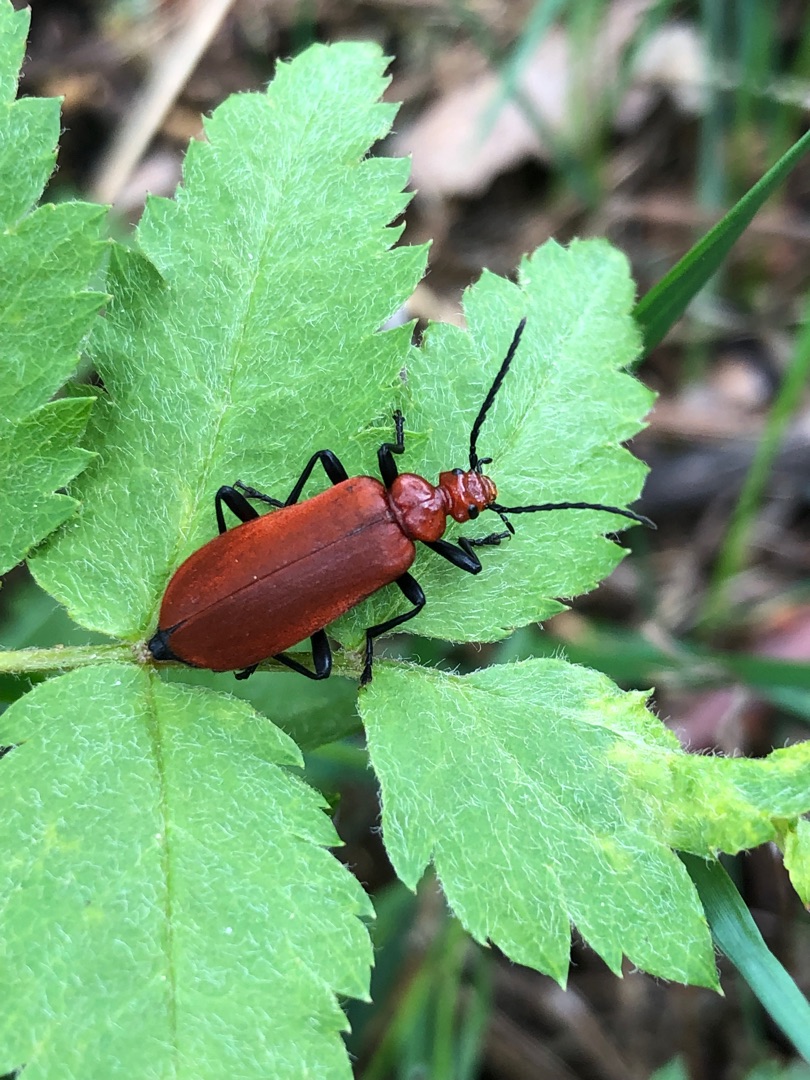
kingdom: Animalia
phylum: Arthropoda
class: Insecta
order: Coleoptera
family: Pyrochroidae
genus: Pyrochroa
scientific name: Pyrochroa serraticornis
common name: Rødhovedet kardinalbille
